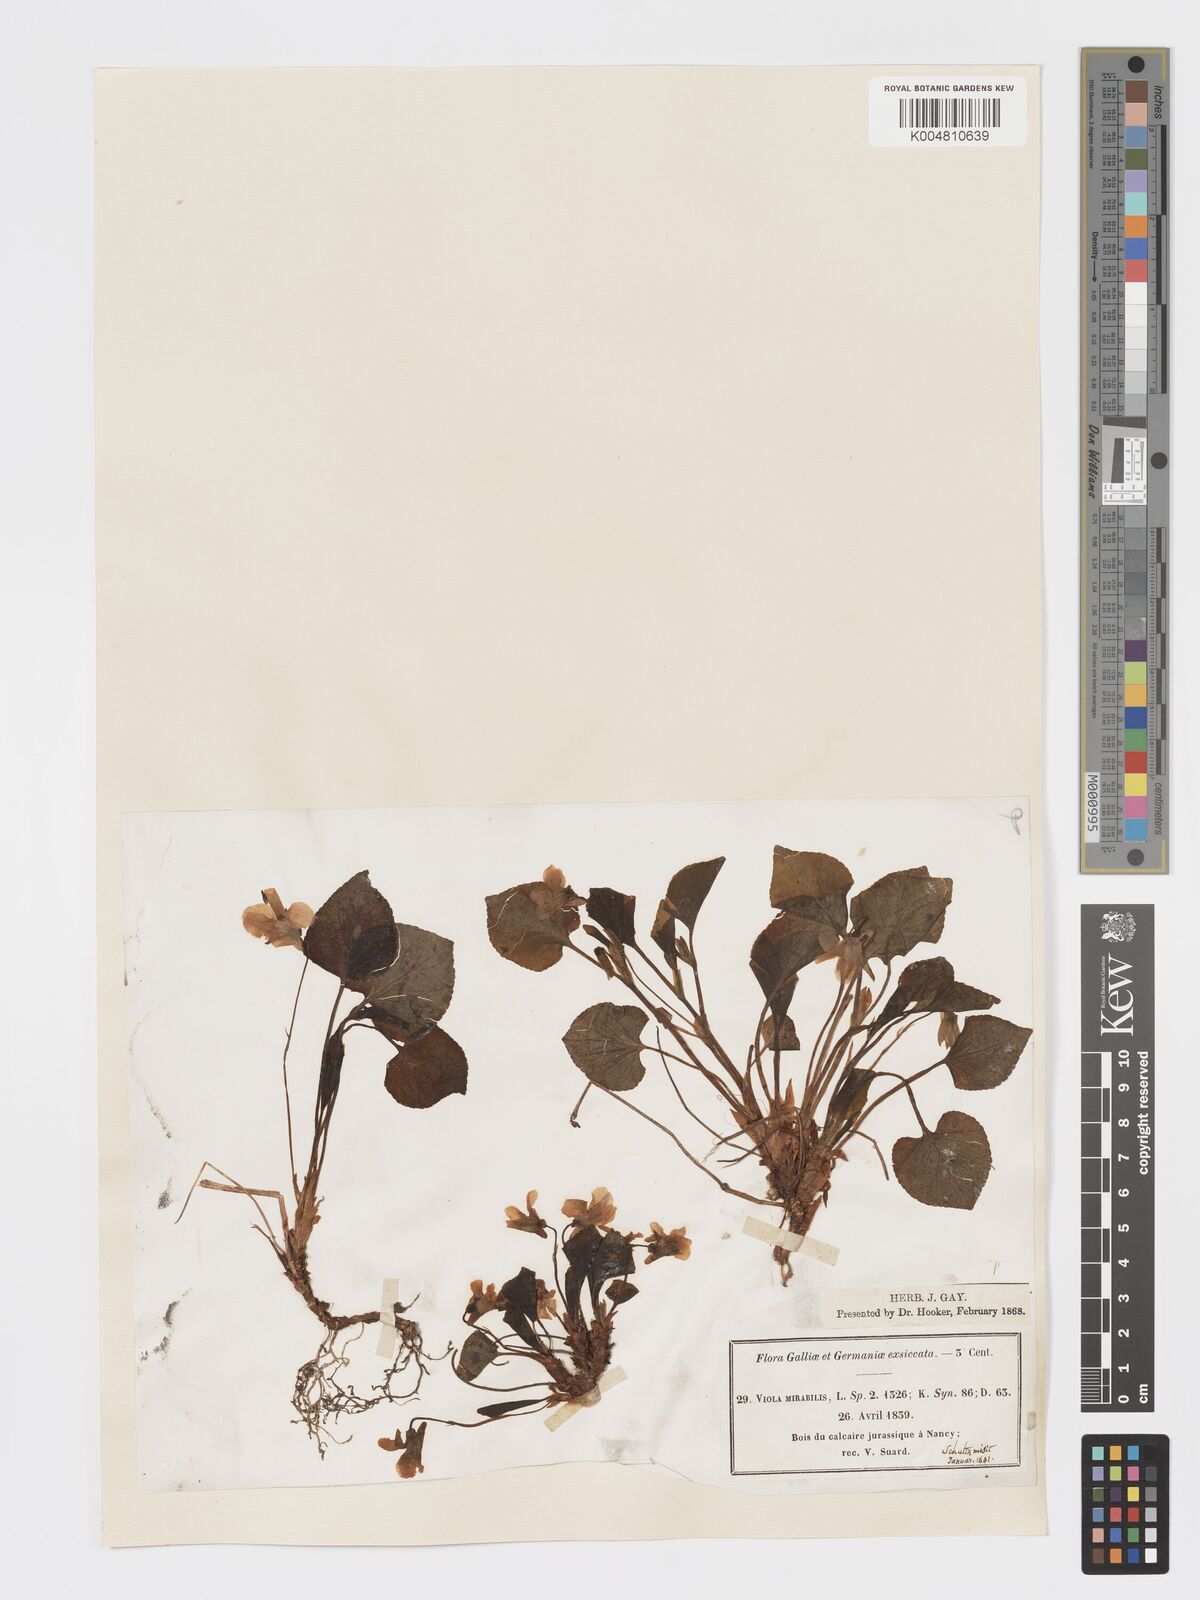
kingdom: Plantae
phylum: Tracheophyta
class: Magnoliopsida
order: Malpighiales
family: Violaceae
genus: Viola
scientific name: Viola mirabilis
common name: Wonder violet
